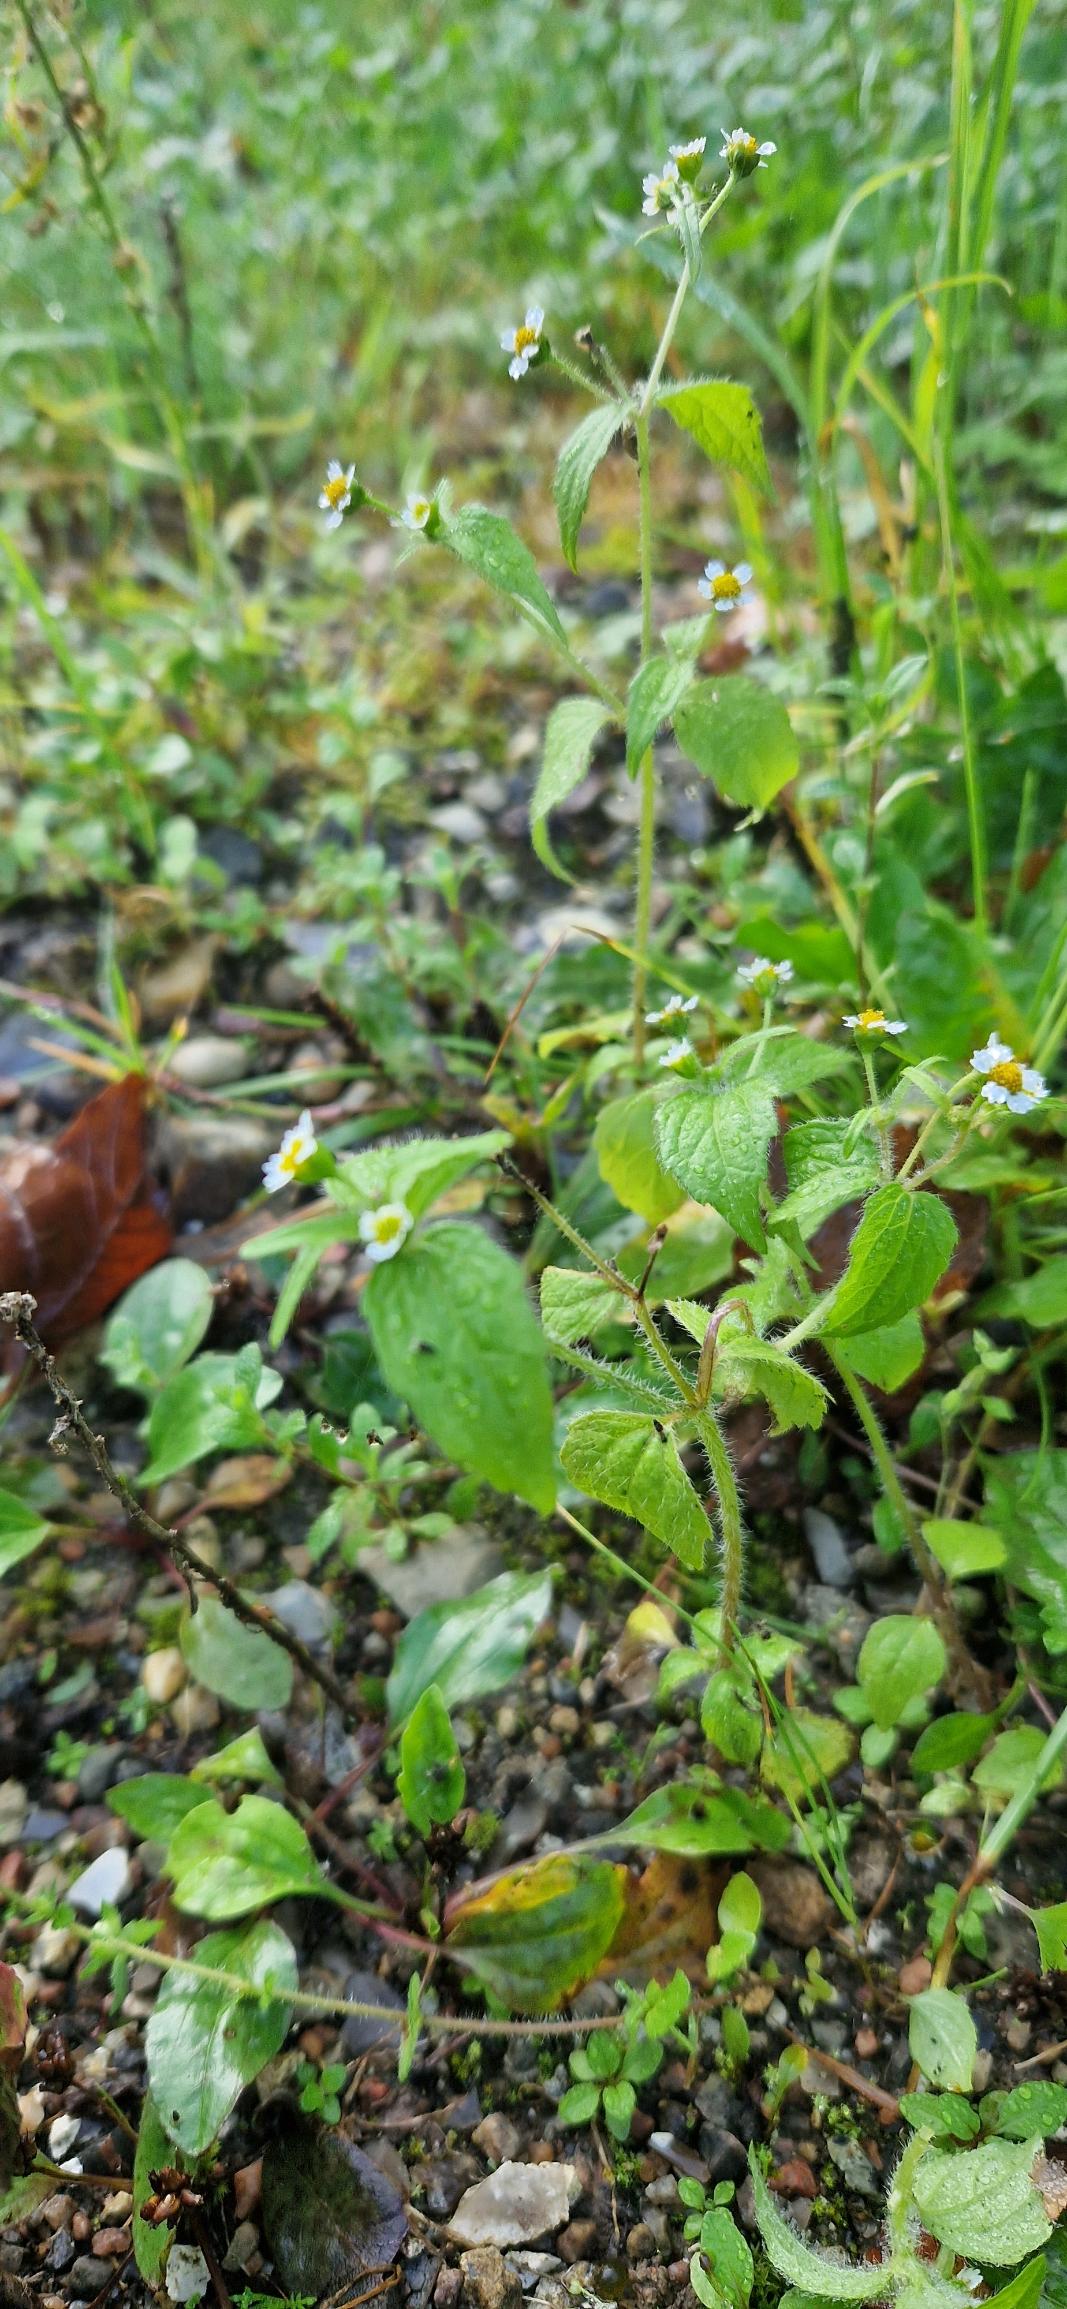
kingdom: Plantae
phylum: Tracheophyta
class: Magnoliopsida
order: Asterales
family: Asteraceae
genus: Galinsoga
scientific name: Galinsoga quadriradiata
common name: Kirtel-kortstråle
